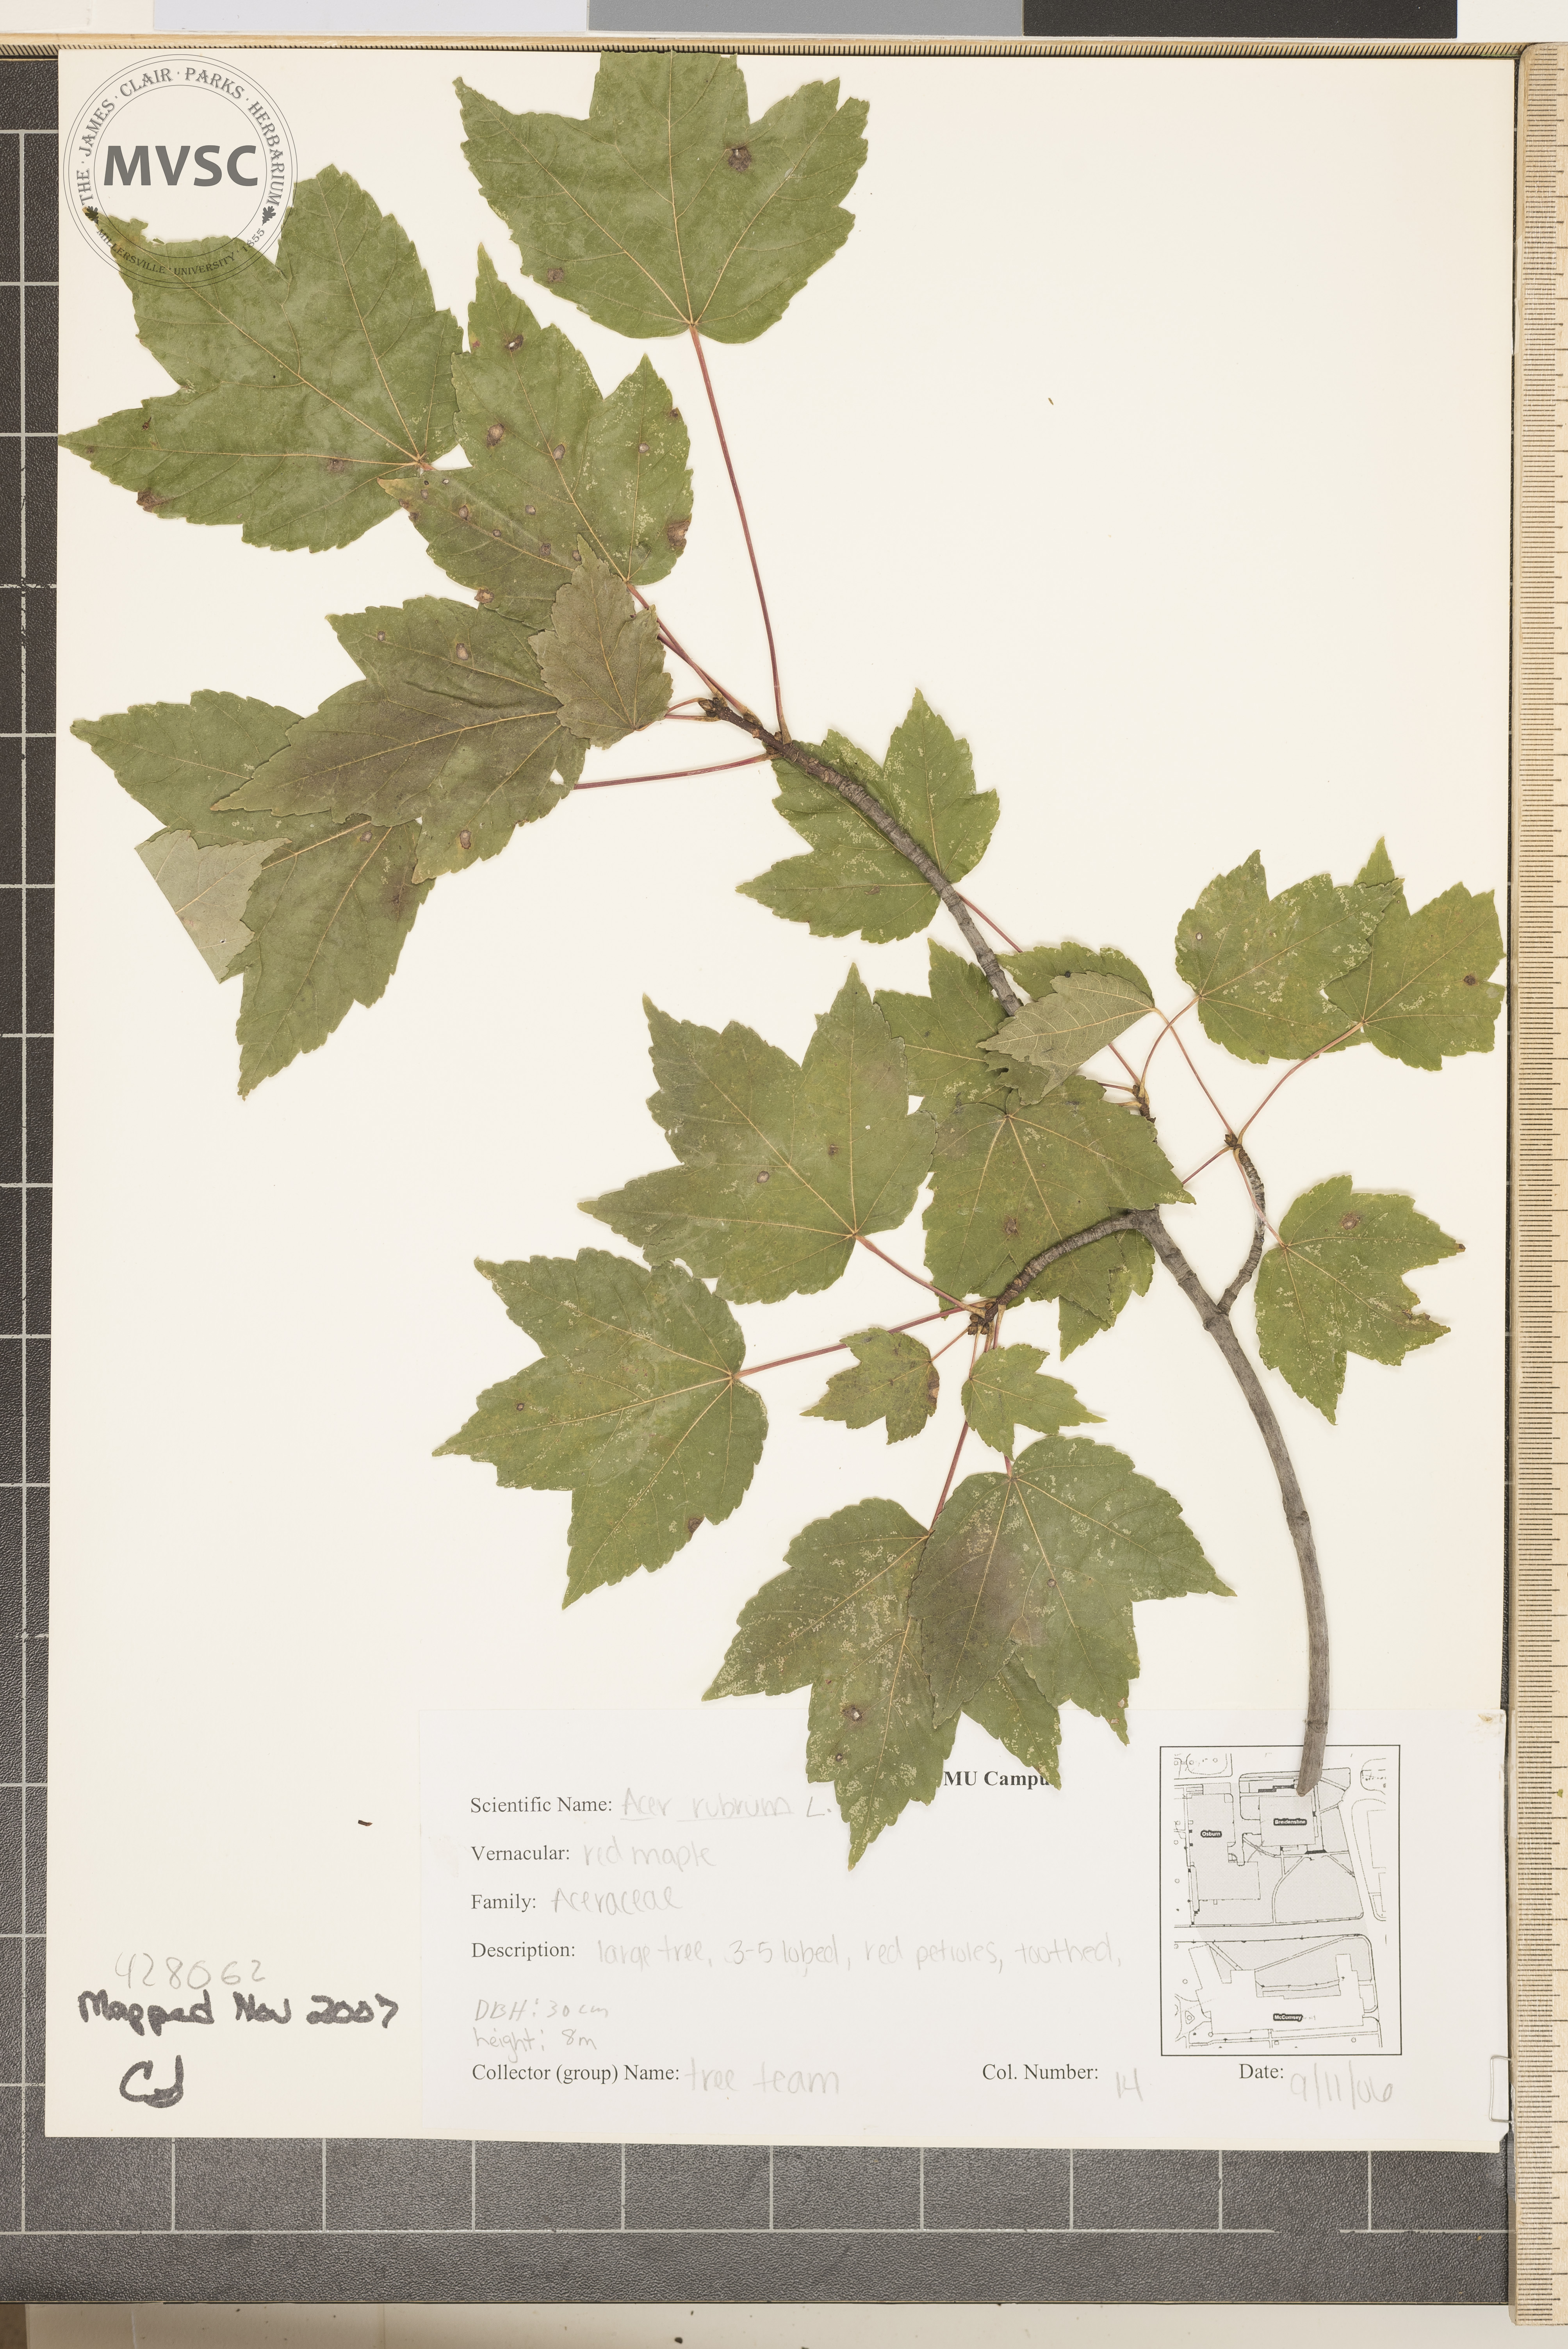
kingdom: Plantae
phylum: Tracheophyta
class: Magnoliopsida
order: Sapindales
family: Sapindaceae
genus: Acer
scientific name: Acer rubrum
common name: Red Maple
